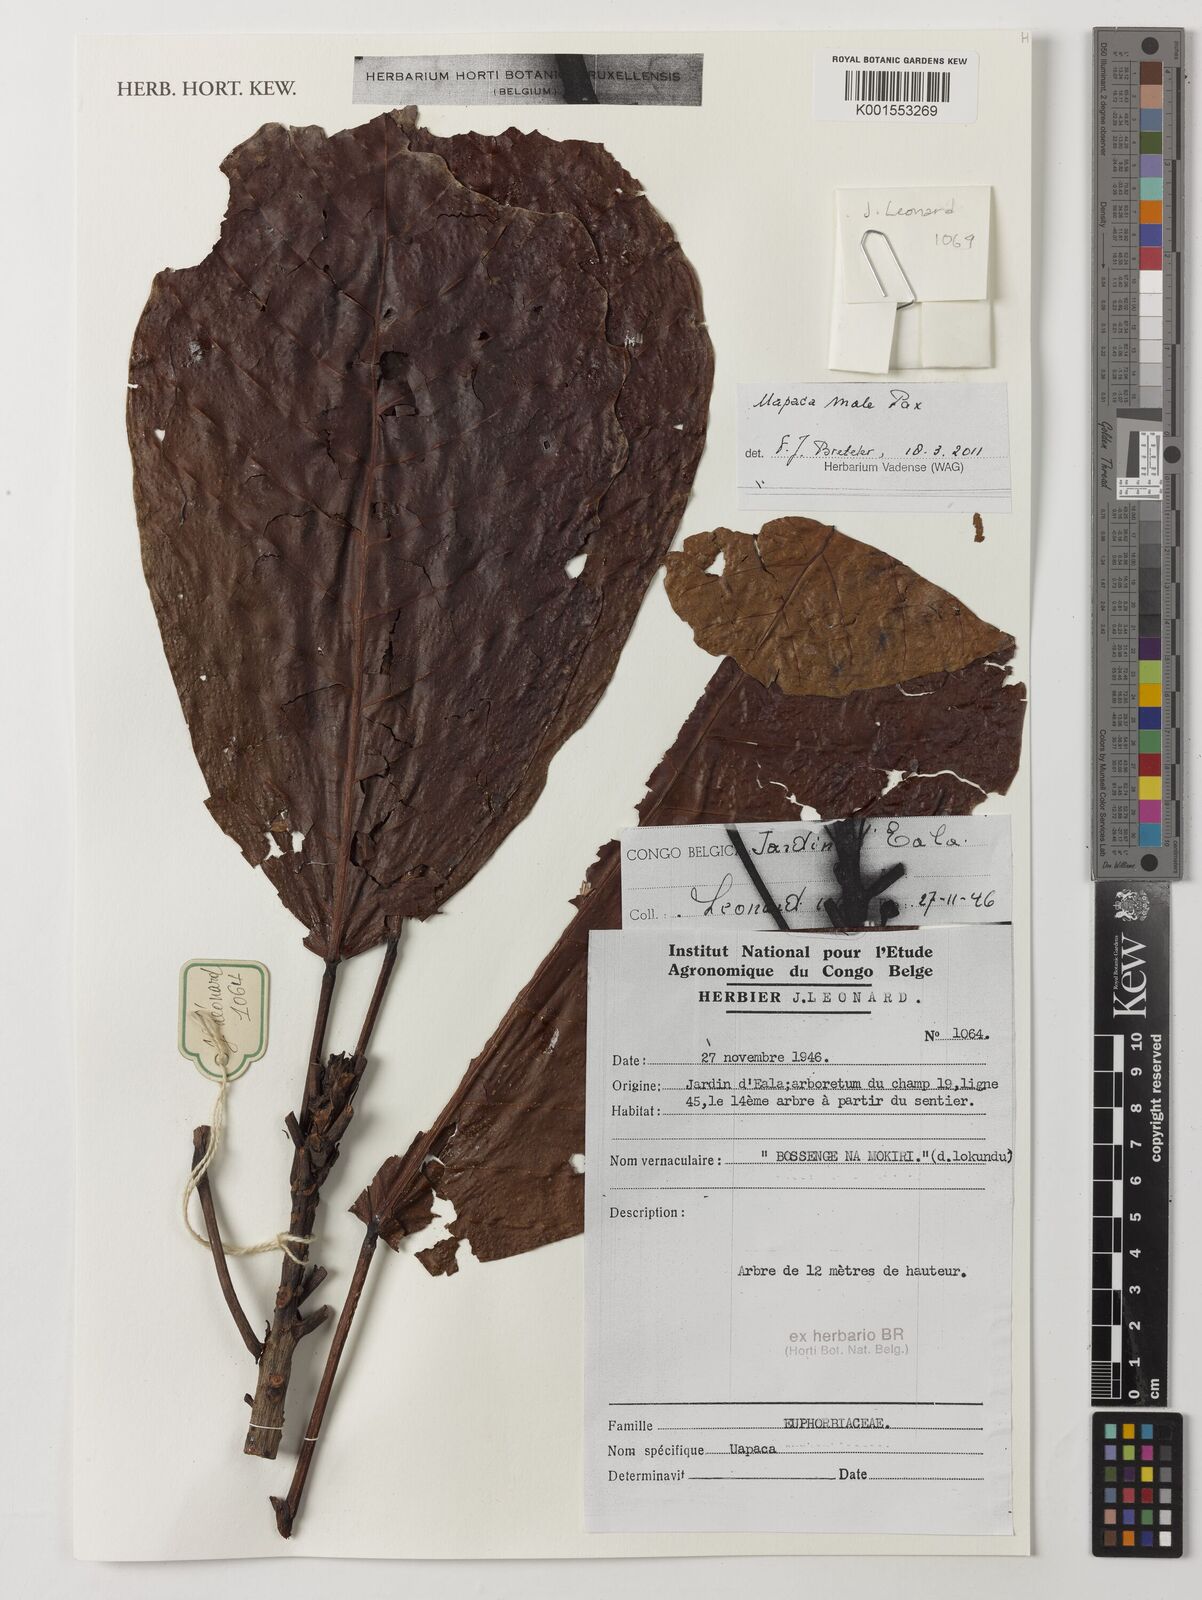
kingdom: Plantae
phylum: Tracheophyta
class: Magnoliopsida
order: Malpighiales
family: Phyllanthaceae
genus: Uapaca
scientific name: Uapaca mole
